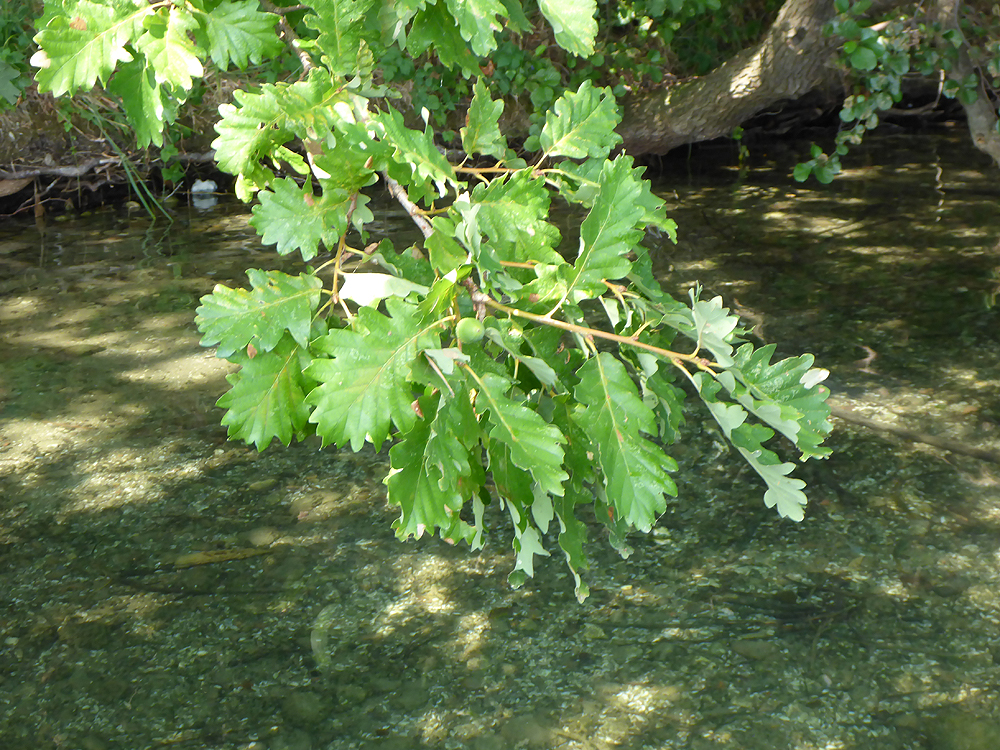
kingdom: Plantae
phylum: Tracheophyta
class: Magnoliopsida
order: Fagales
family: Fagaceae
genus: Quercus
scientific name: Quercus petraea
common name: Sessile oak
